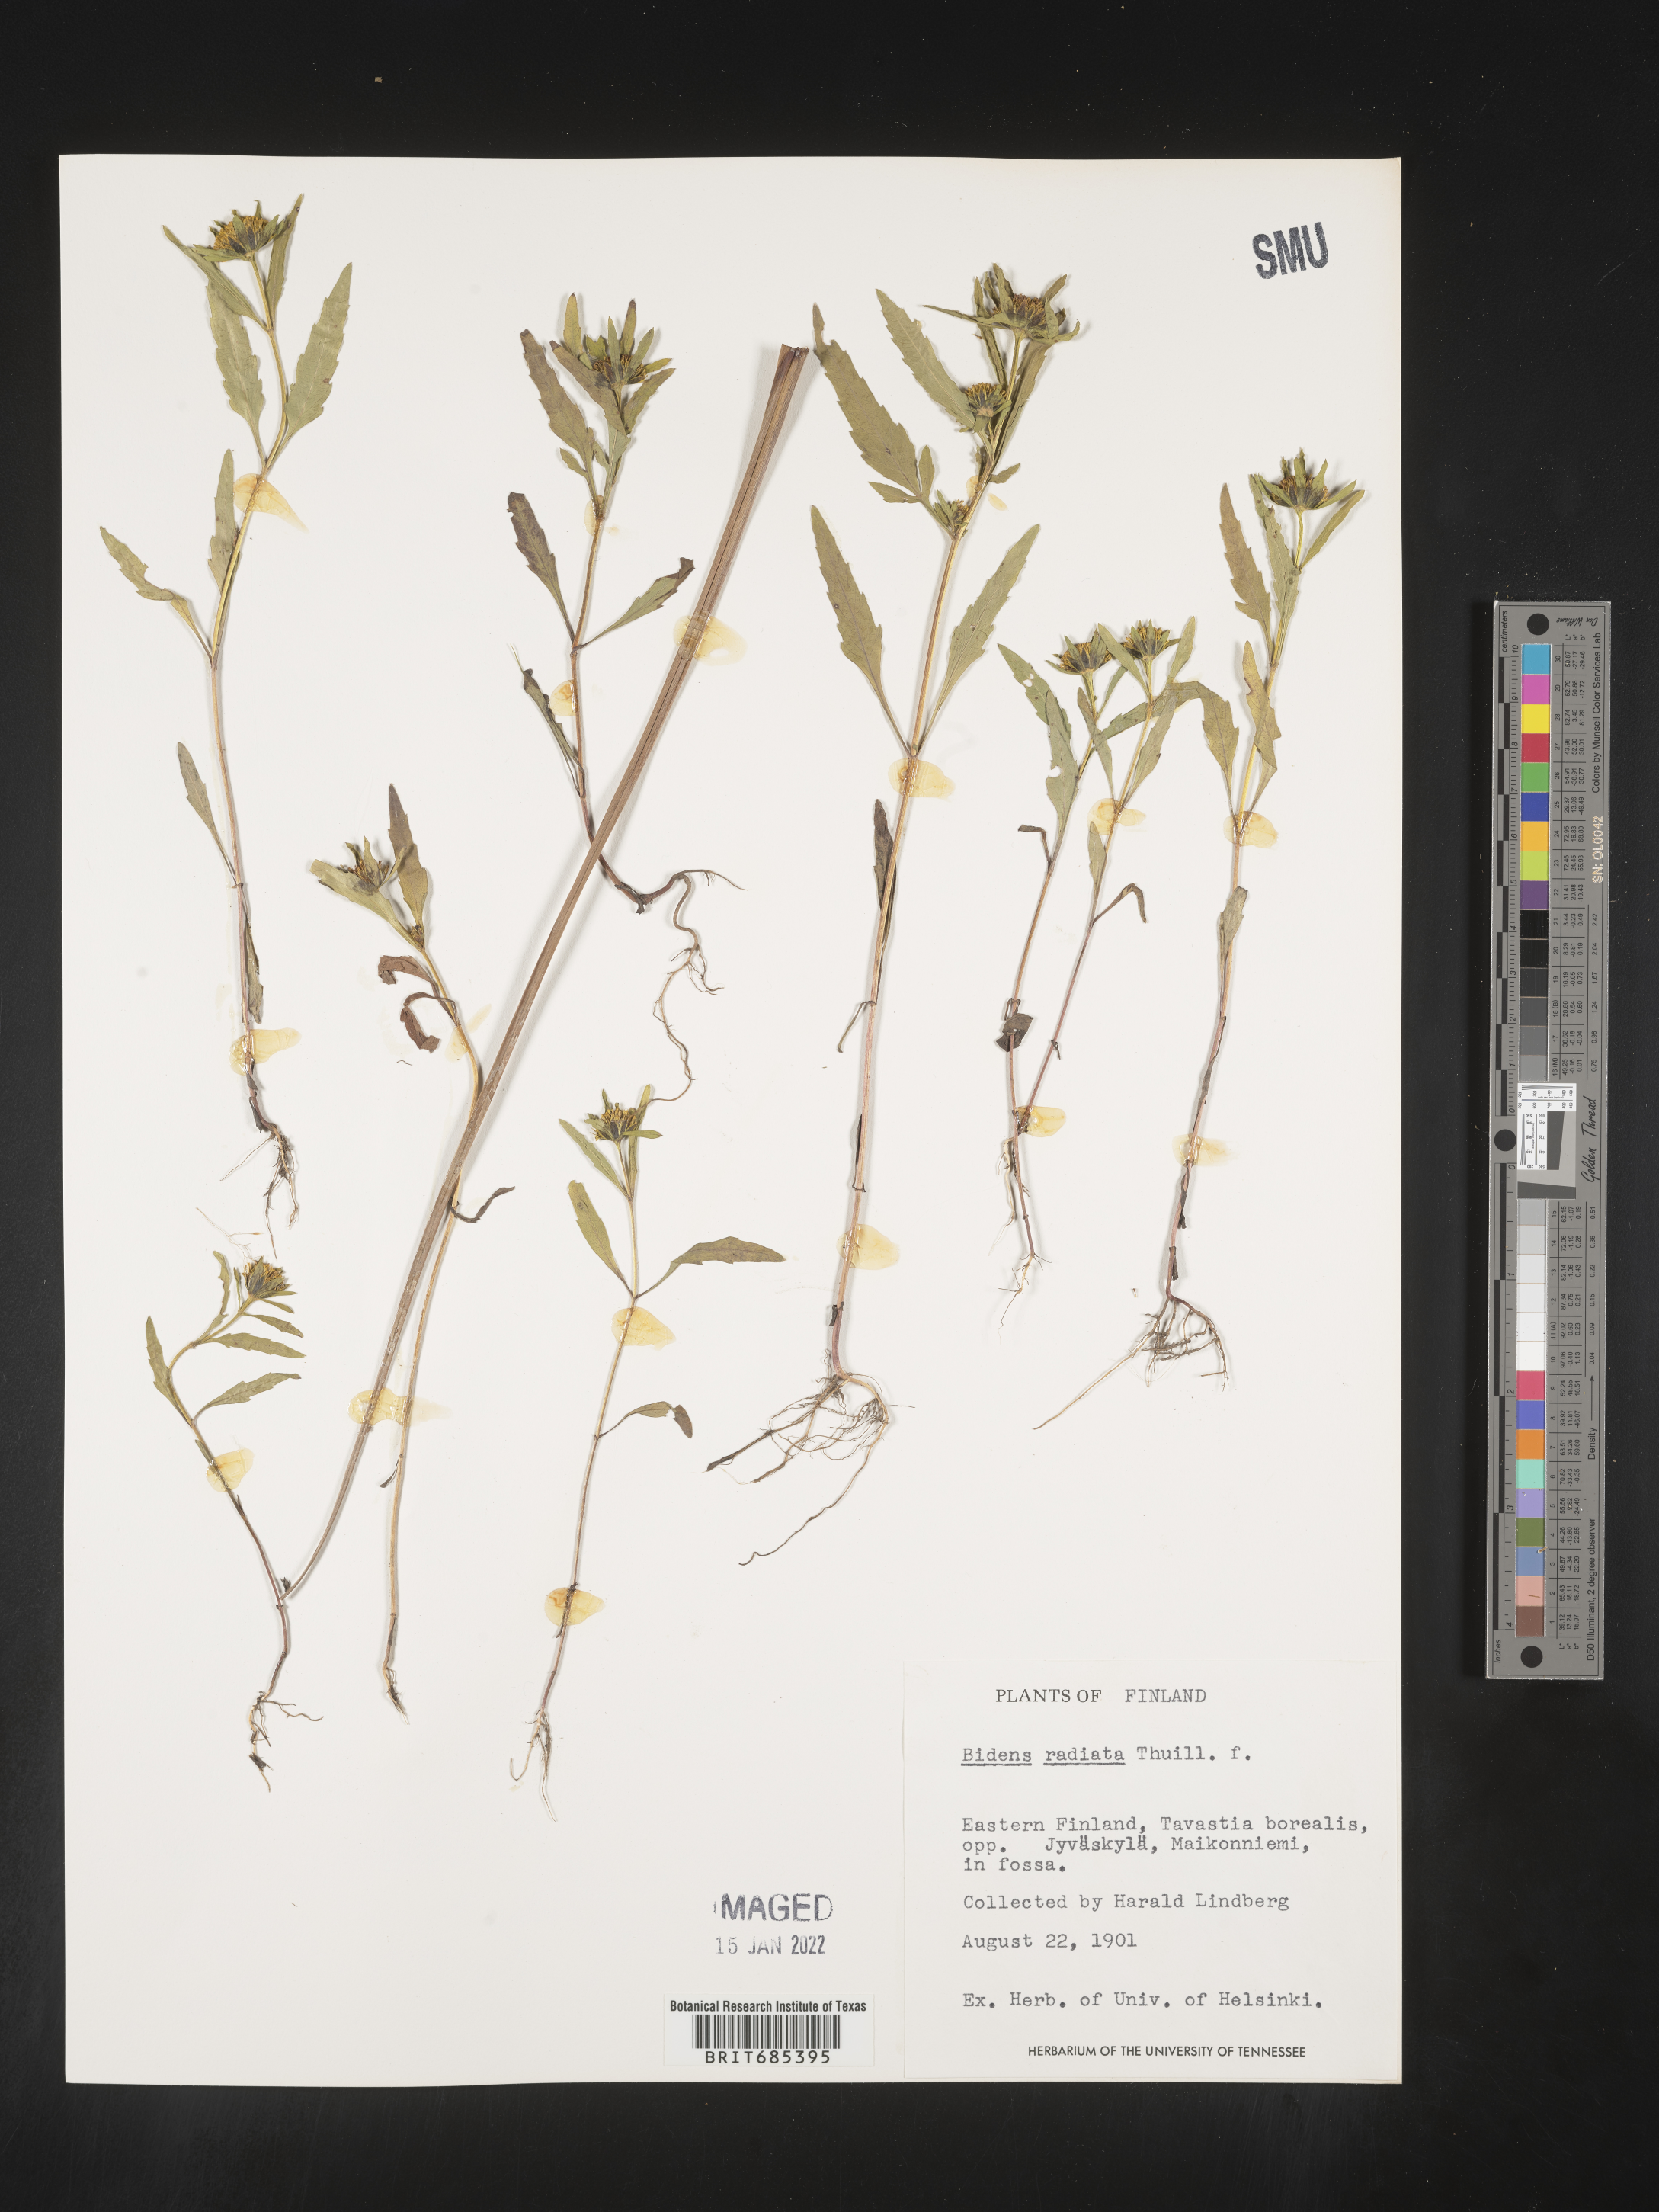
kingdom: Plantae
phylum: Tracheophyta
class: Magnoliopsida
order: Asterales
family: Asteraceae
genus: Bidens
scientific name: Bidens
